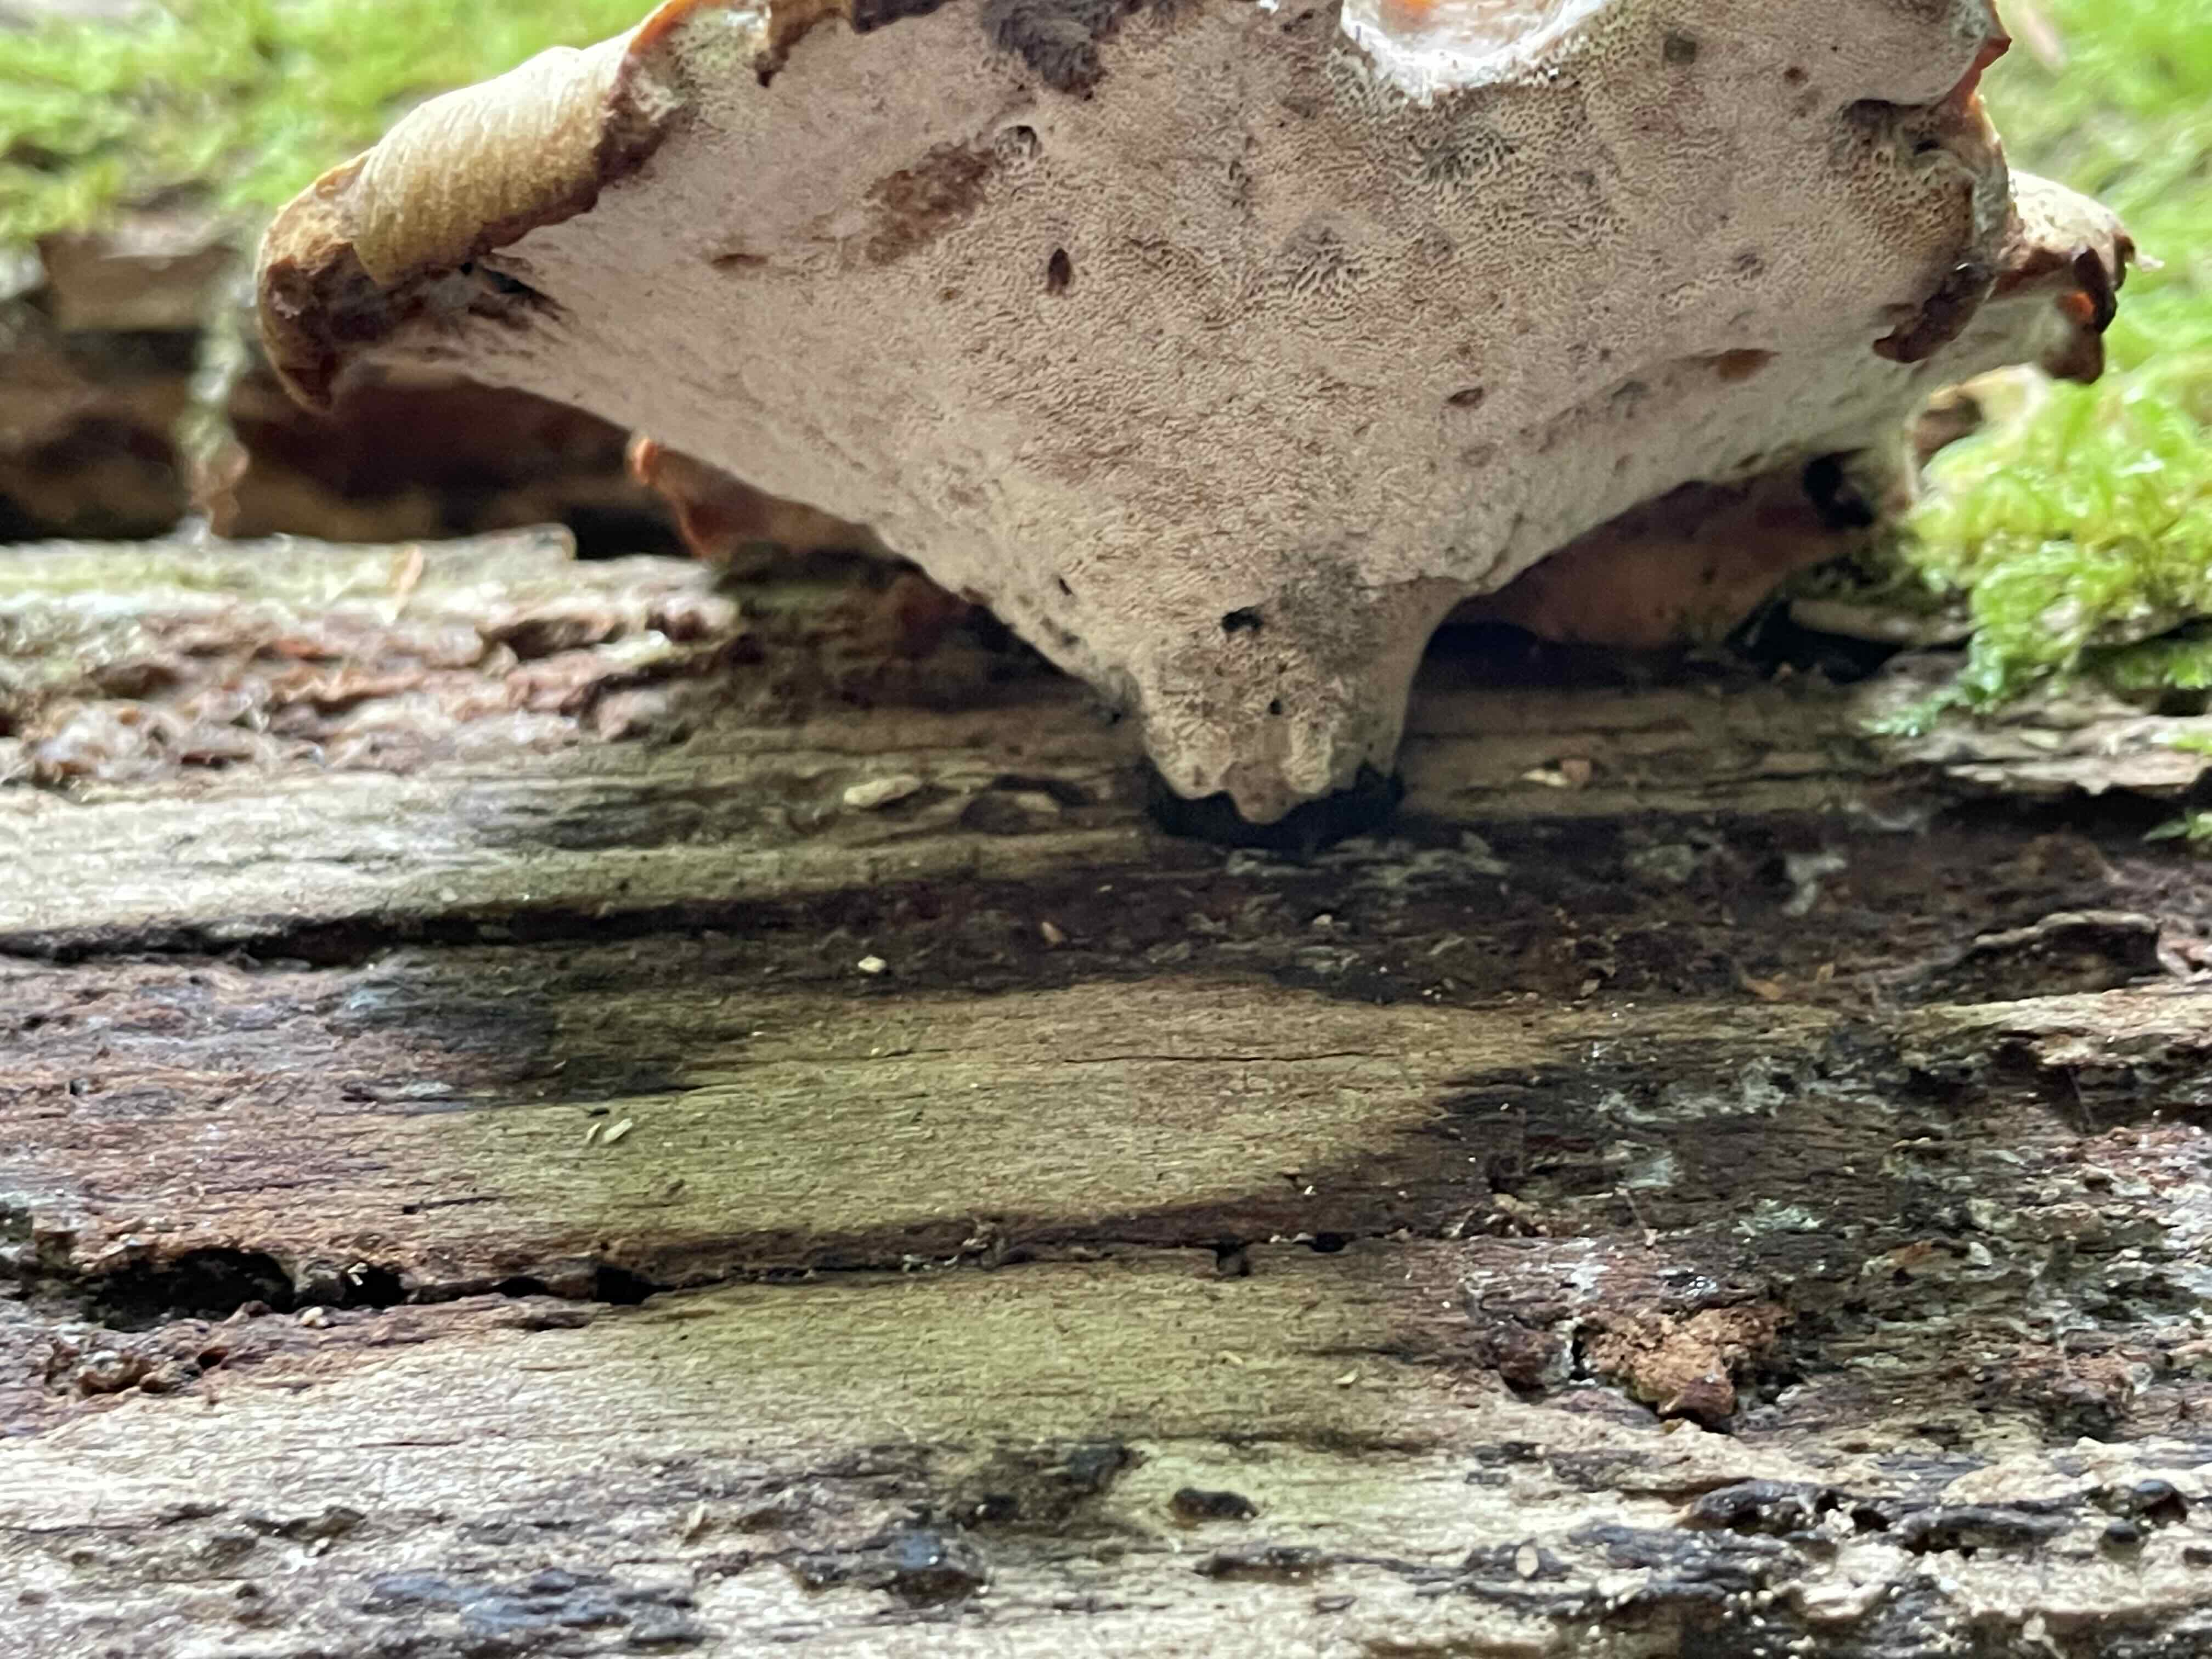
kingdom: Fungi
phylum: Basidiomycota
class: Agaricomycetes
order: Polyporales
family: Polyporaceae
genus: Cerioporus
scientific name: Cerioporus varius
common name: foranderlig stilkporesvamp
